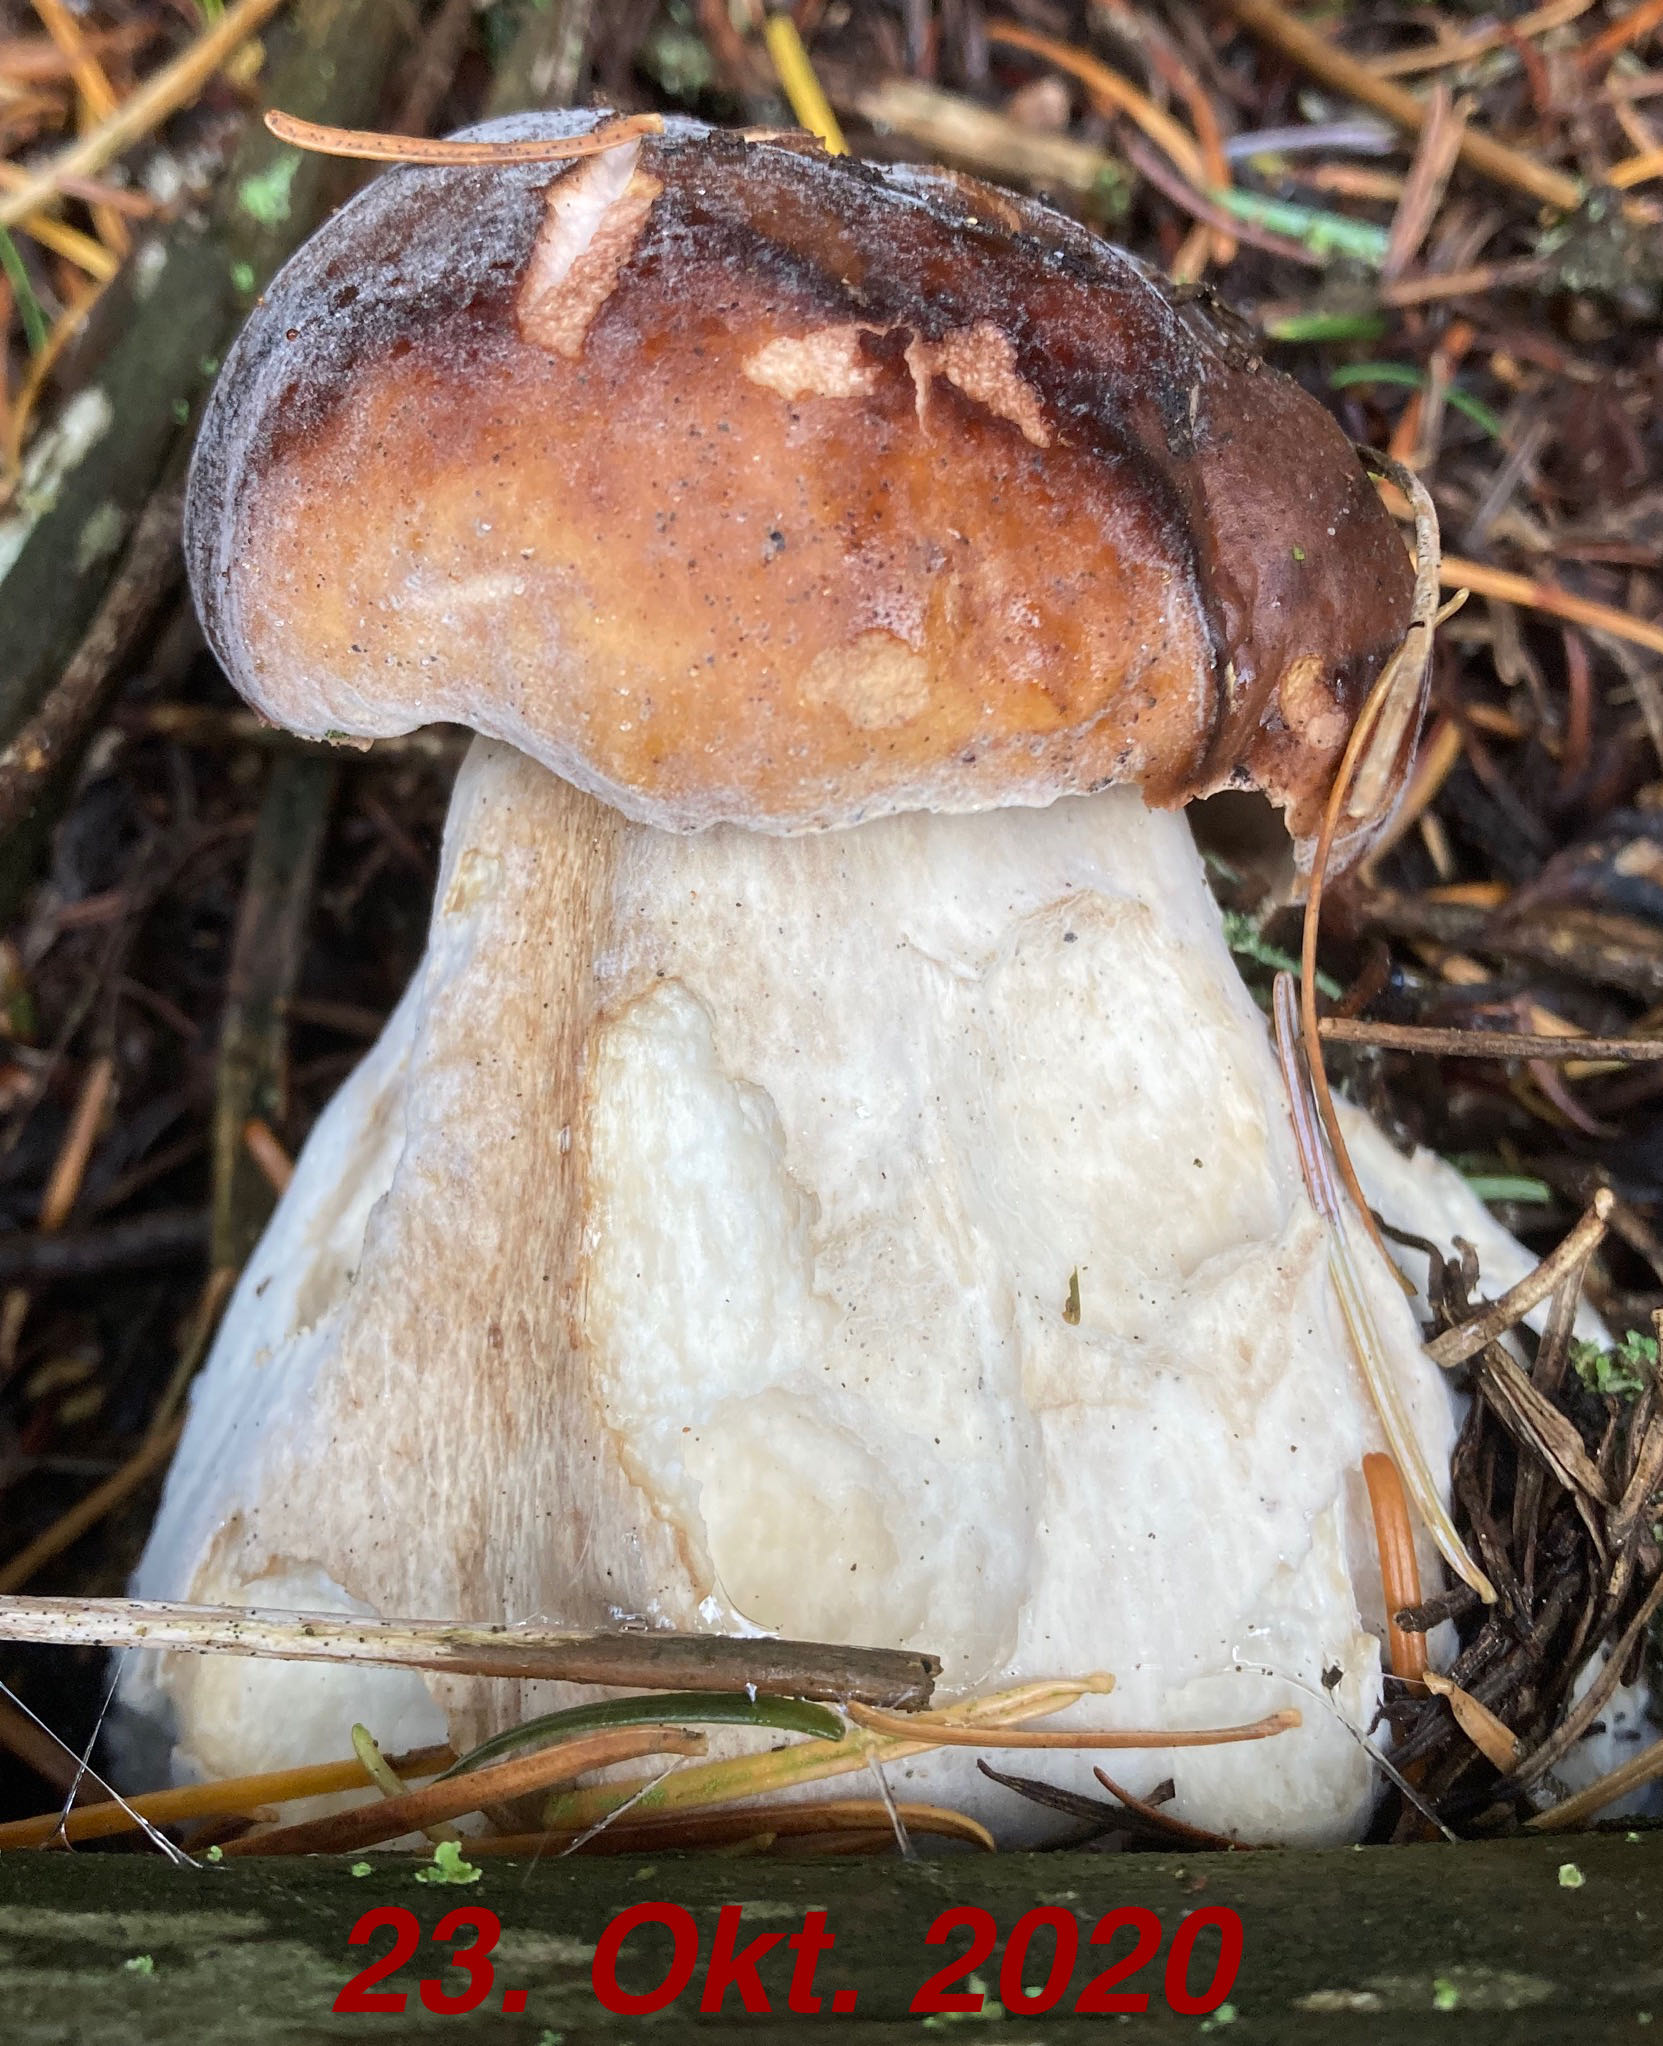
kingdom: Fungi
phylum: Ascomycota
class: Sordariomycetes
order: Hypocreales
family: Hypocreaceae
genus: Hypomyces
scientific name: Hypomyces chrysospermus
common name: gulskimmel-snylteskorpe
